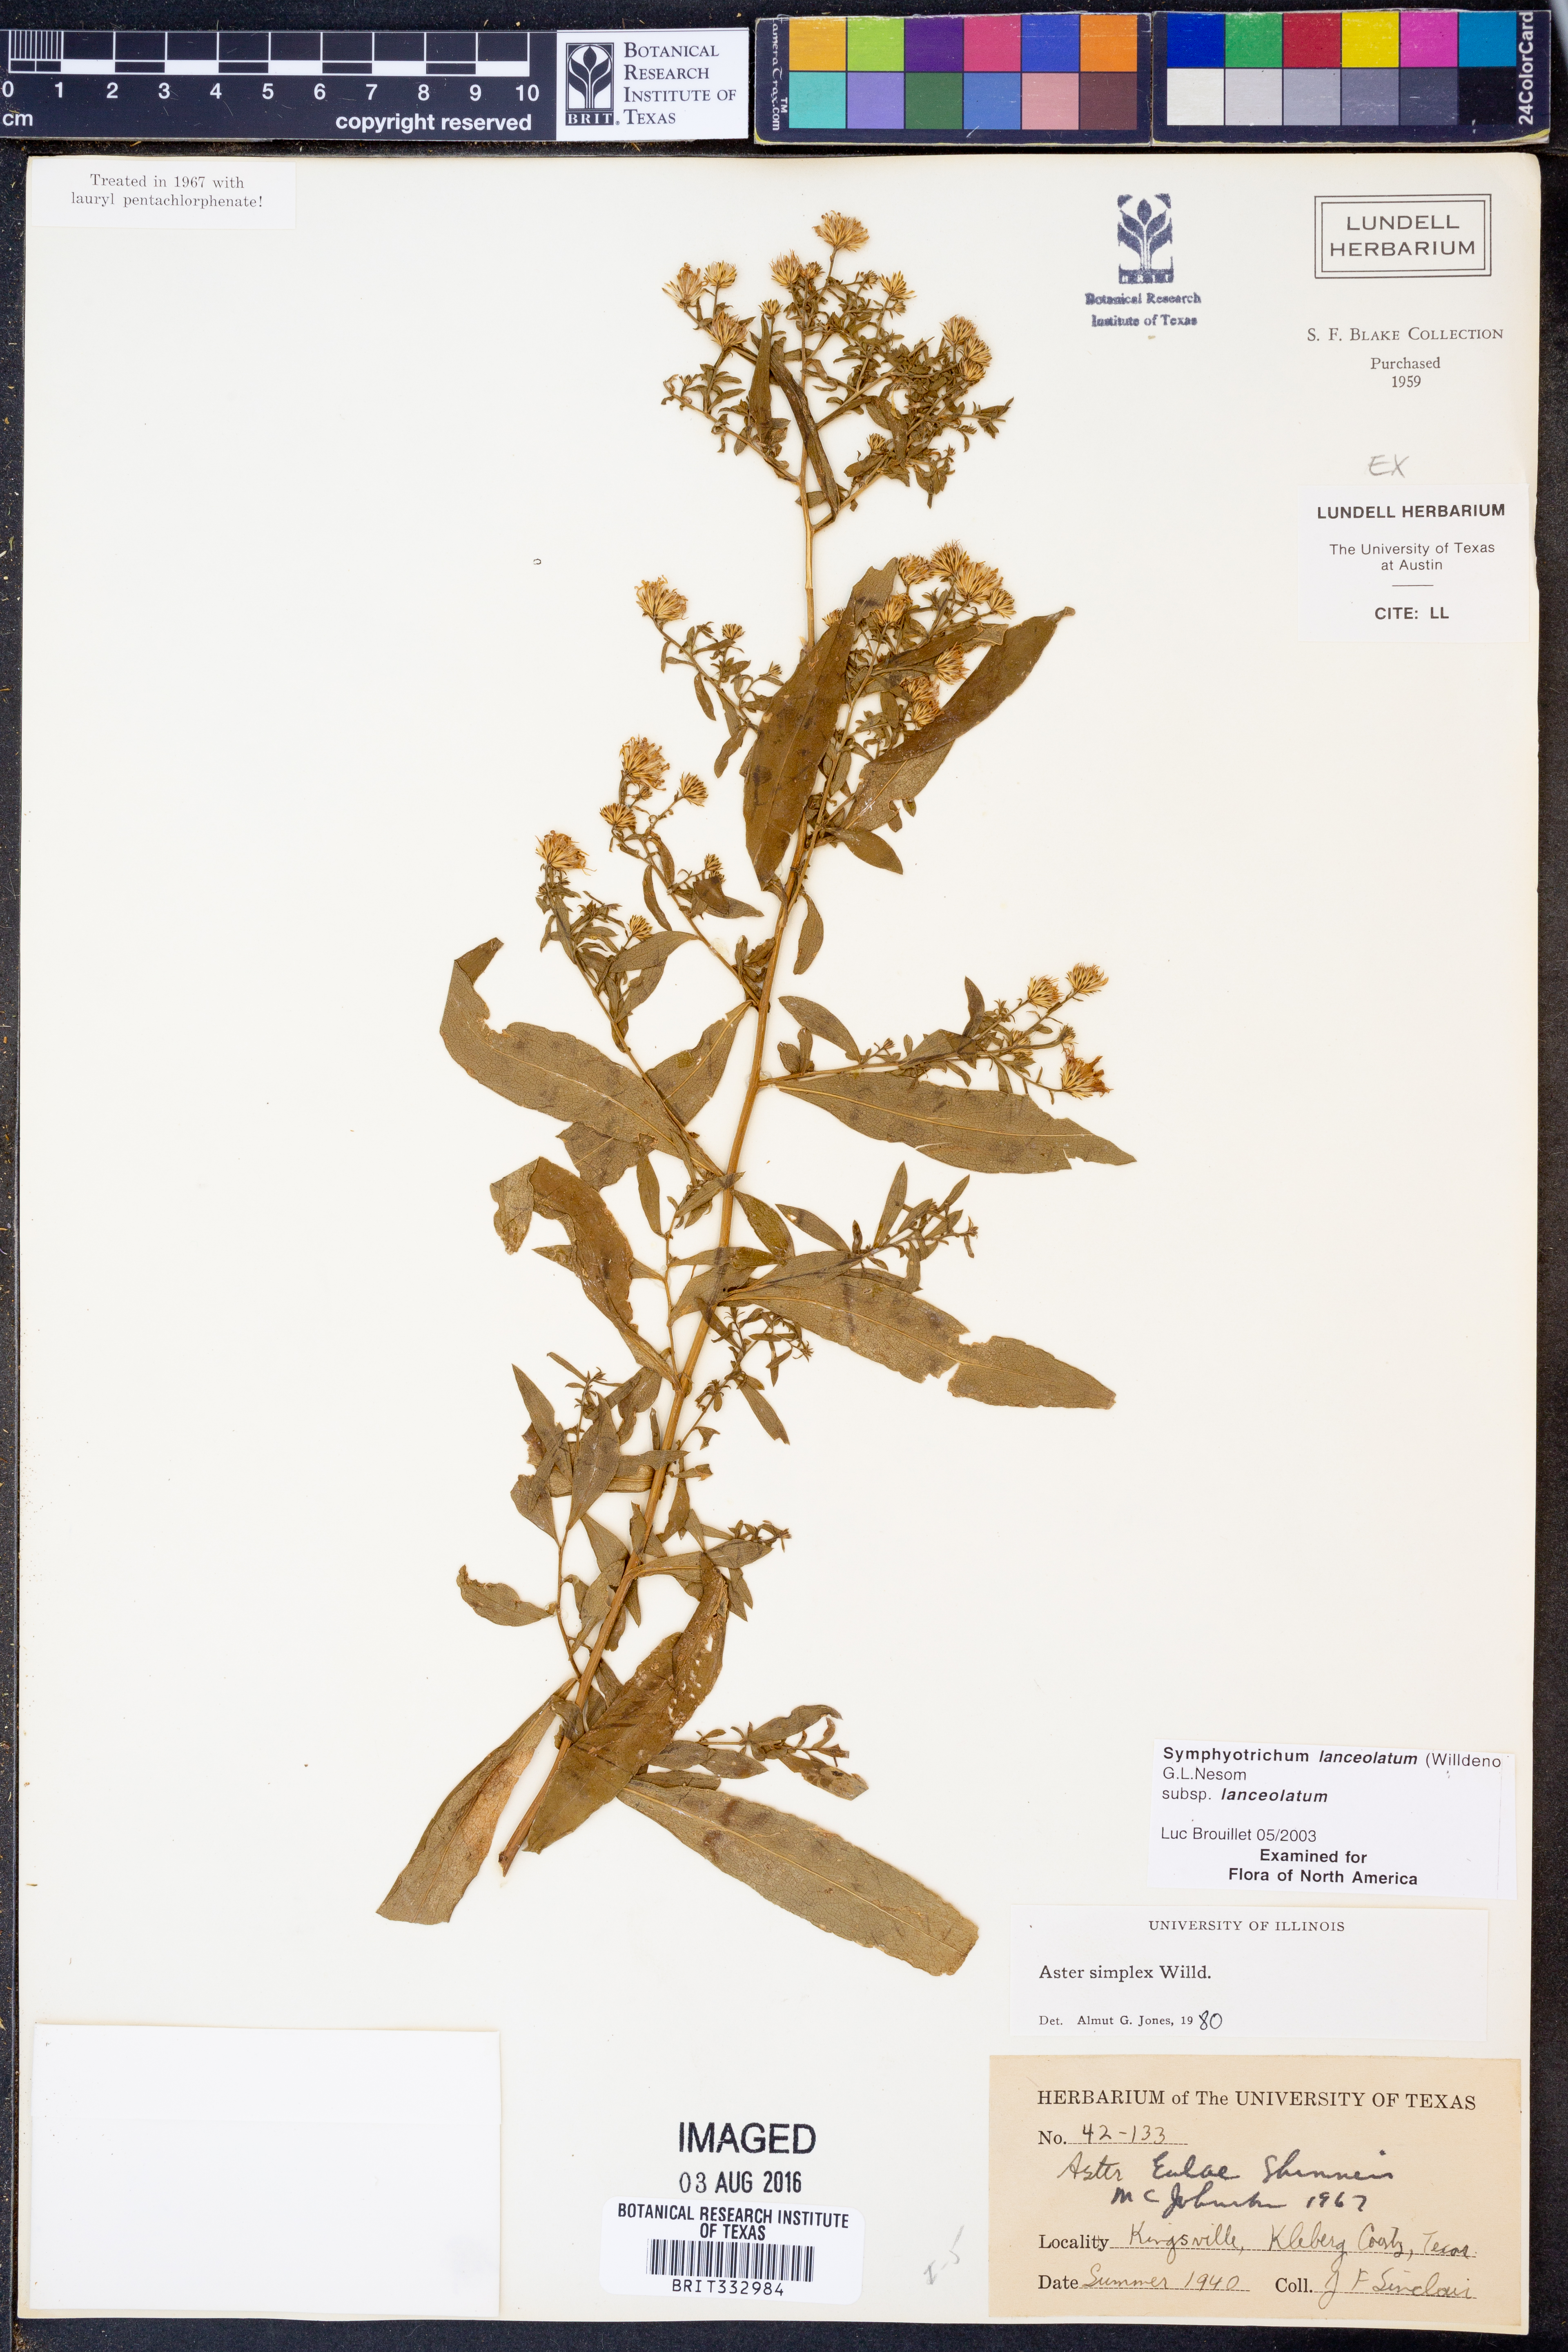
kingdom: Plantae
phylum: Tracheophyta
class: Magnoliopsida
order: Asterales
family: Asteraceae
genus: Symphyotrichum
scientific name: Symphyotrichum lanceolatum
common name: Panicled aster
